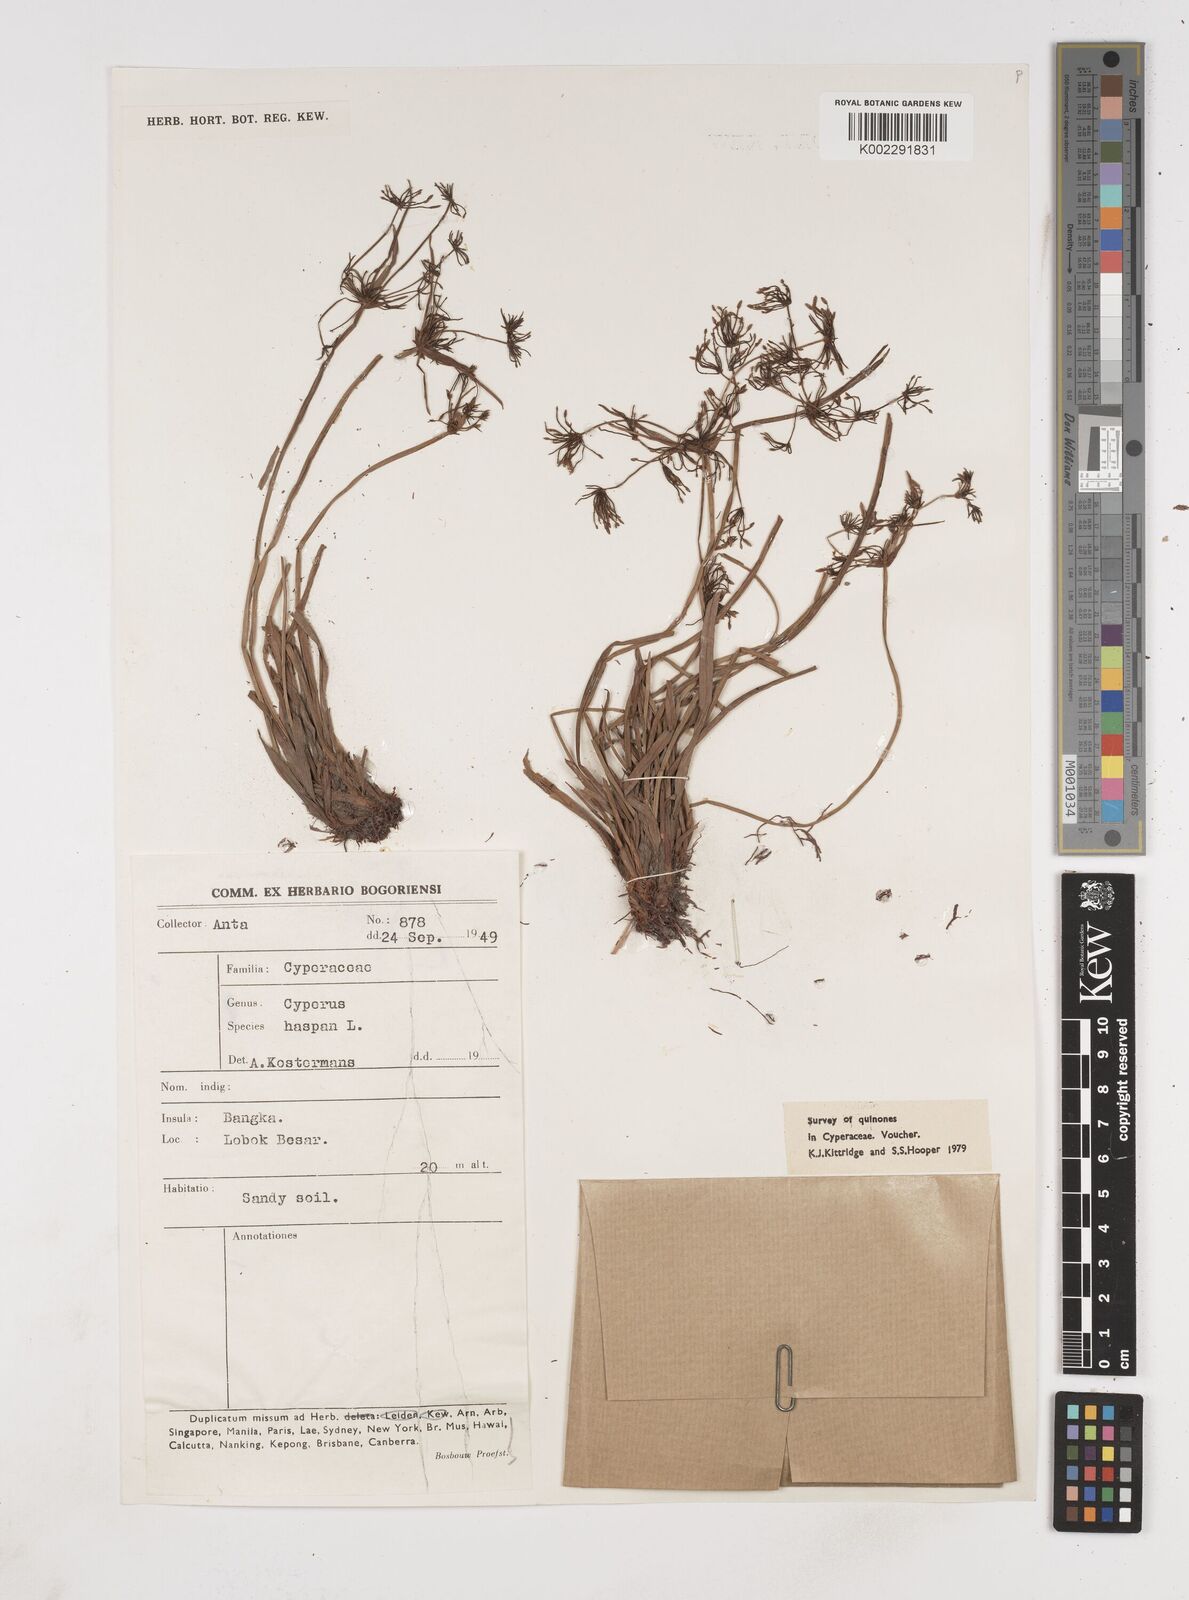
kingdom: Plantae
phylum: Tracheophyta
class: Liliopsida
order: Poales
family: Cyperaceae
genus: Cyperus
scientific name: Cyperus haspan
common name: Haspan flatsedge
